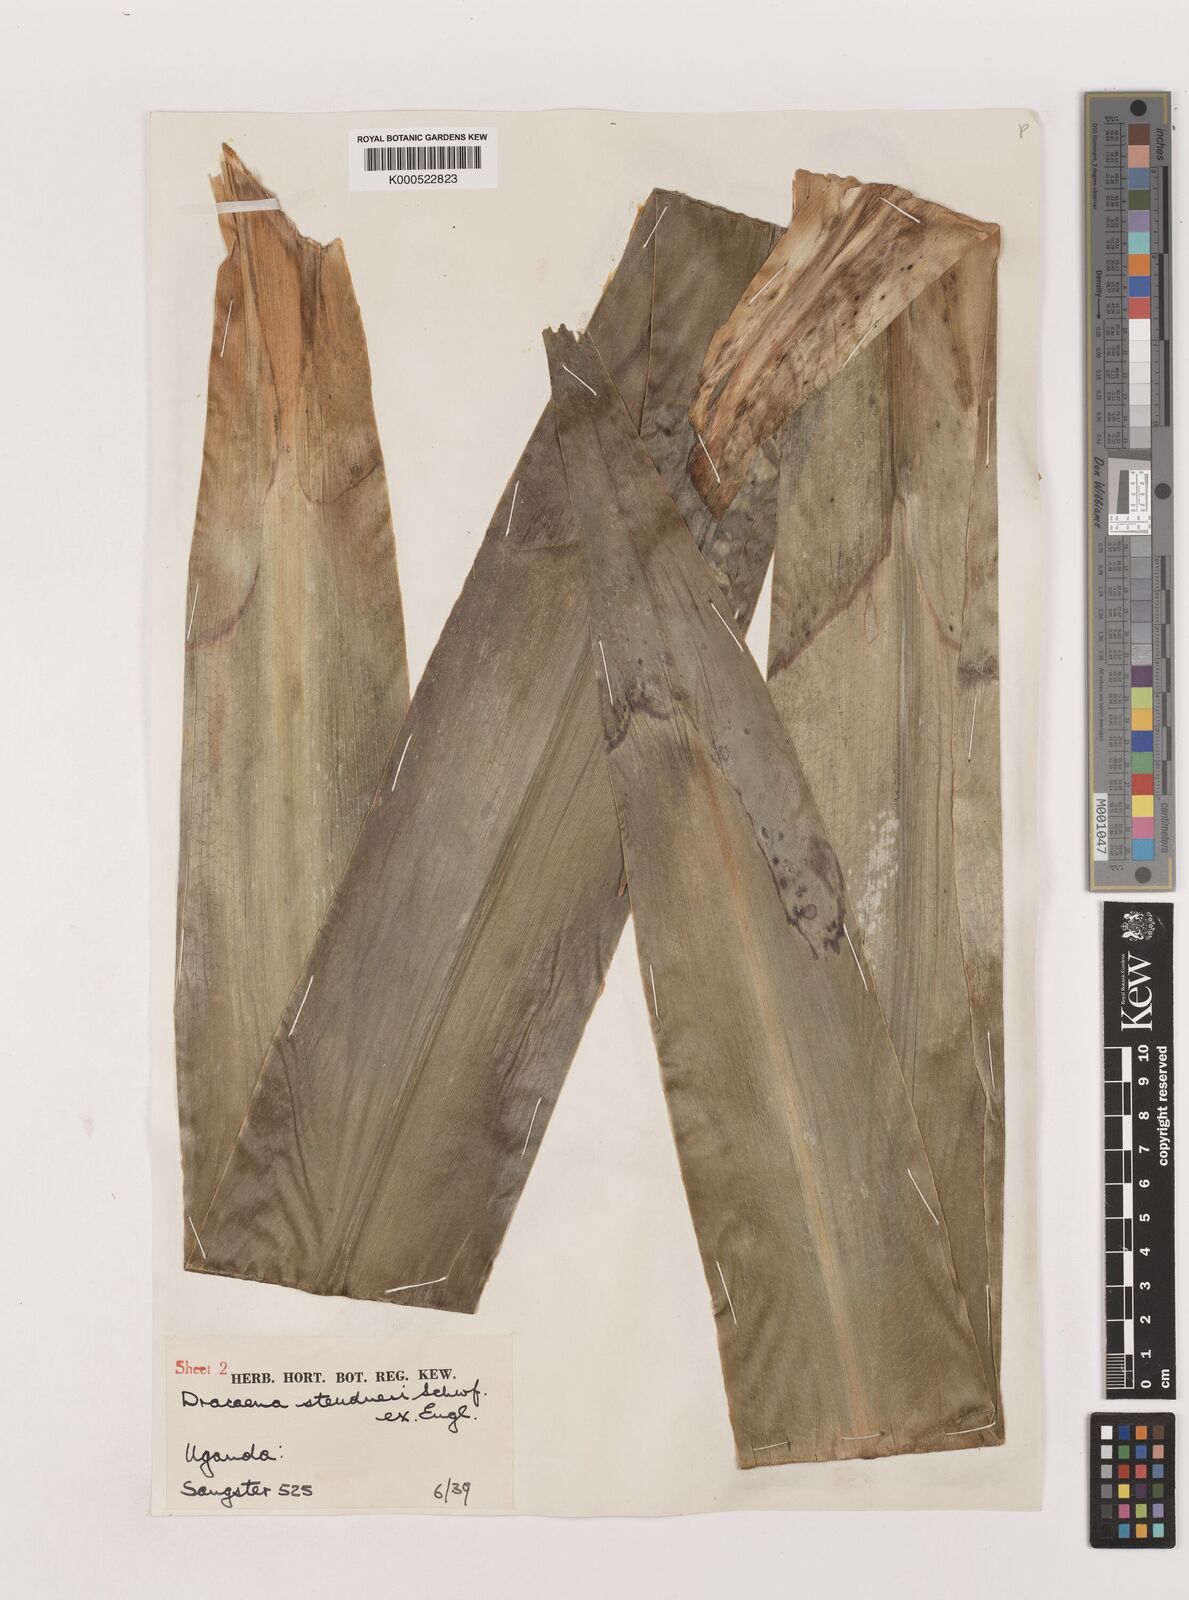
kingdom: Plantae
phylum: Tracheophyta
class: Liliopsida
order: Asparagales
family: Asparagaceae
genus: Dracaena
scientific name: Dracaena steudneri
